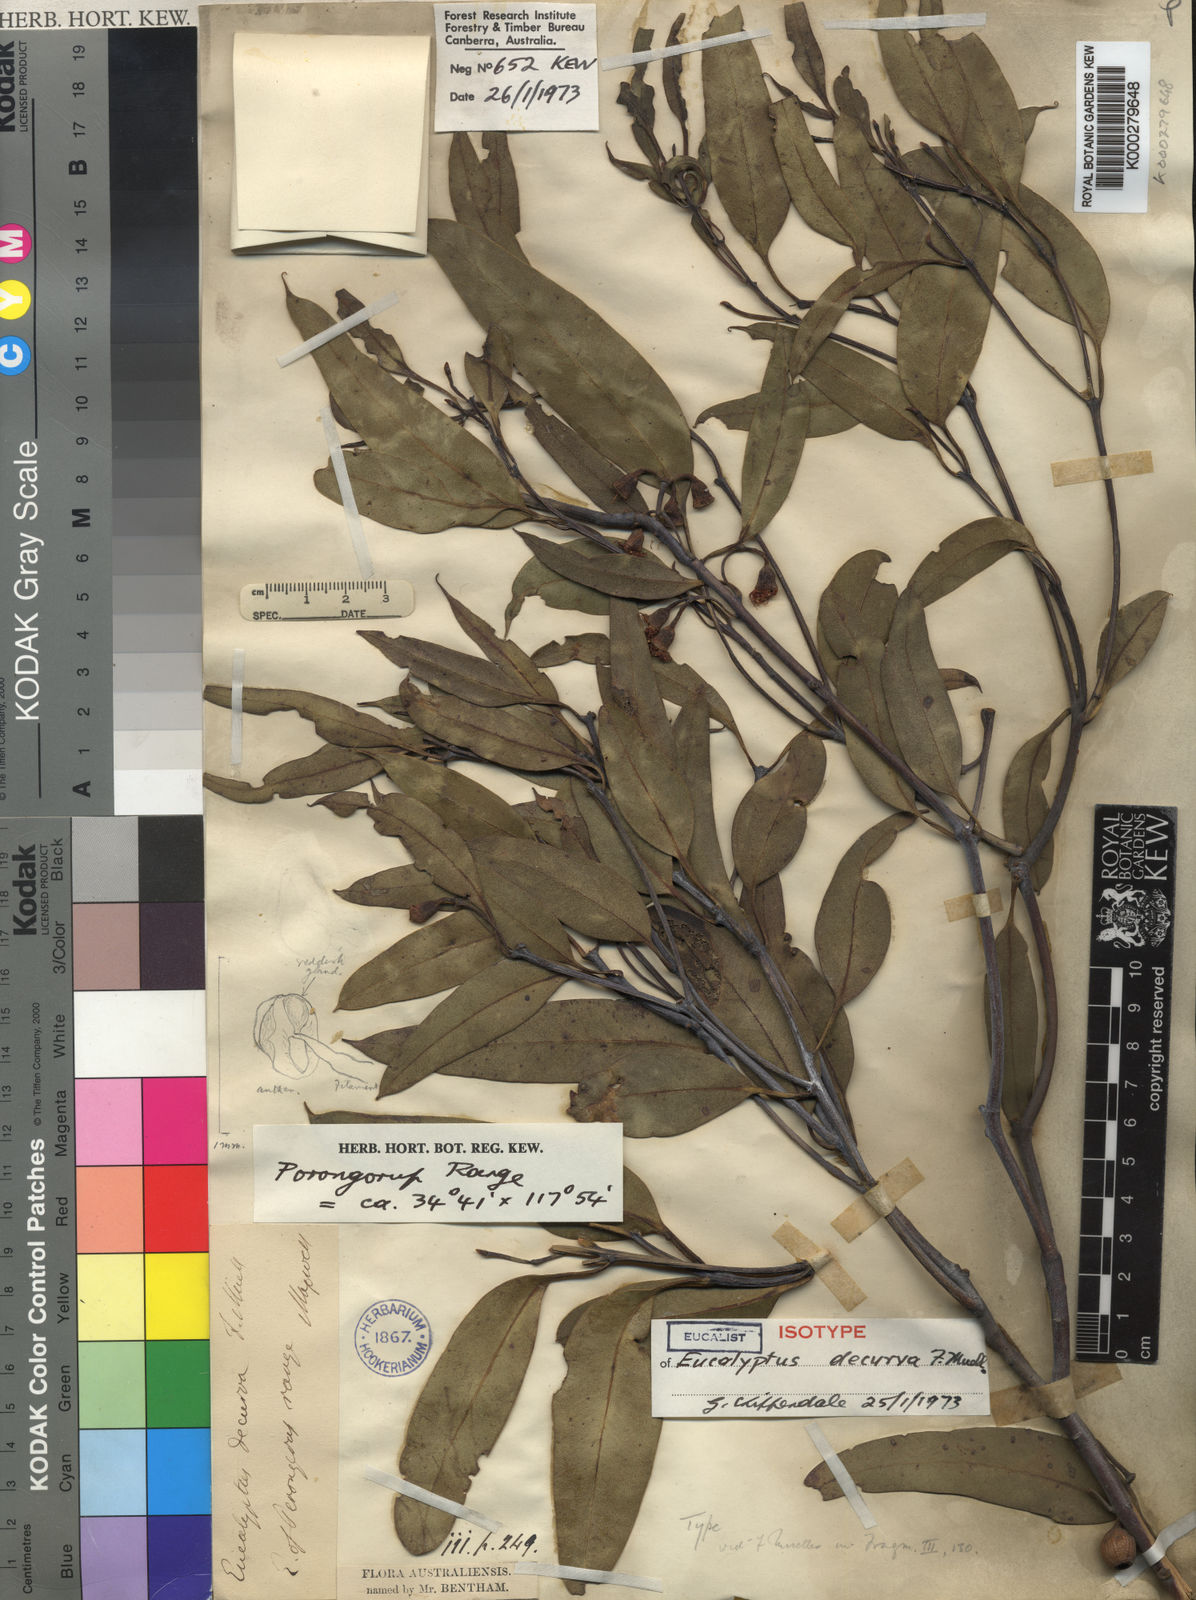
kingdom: Plantae
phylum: Tracheophyta
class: Magnoliopsida
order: Myrtales
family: Myrtaceae
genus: Eucalyptus
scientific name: Eucalyptus decurva
